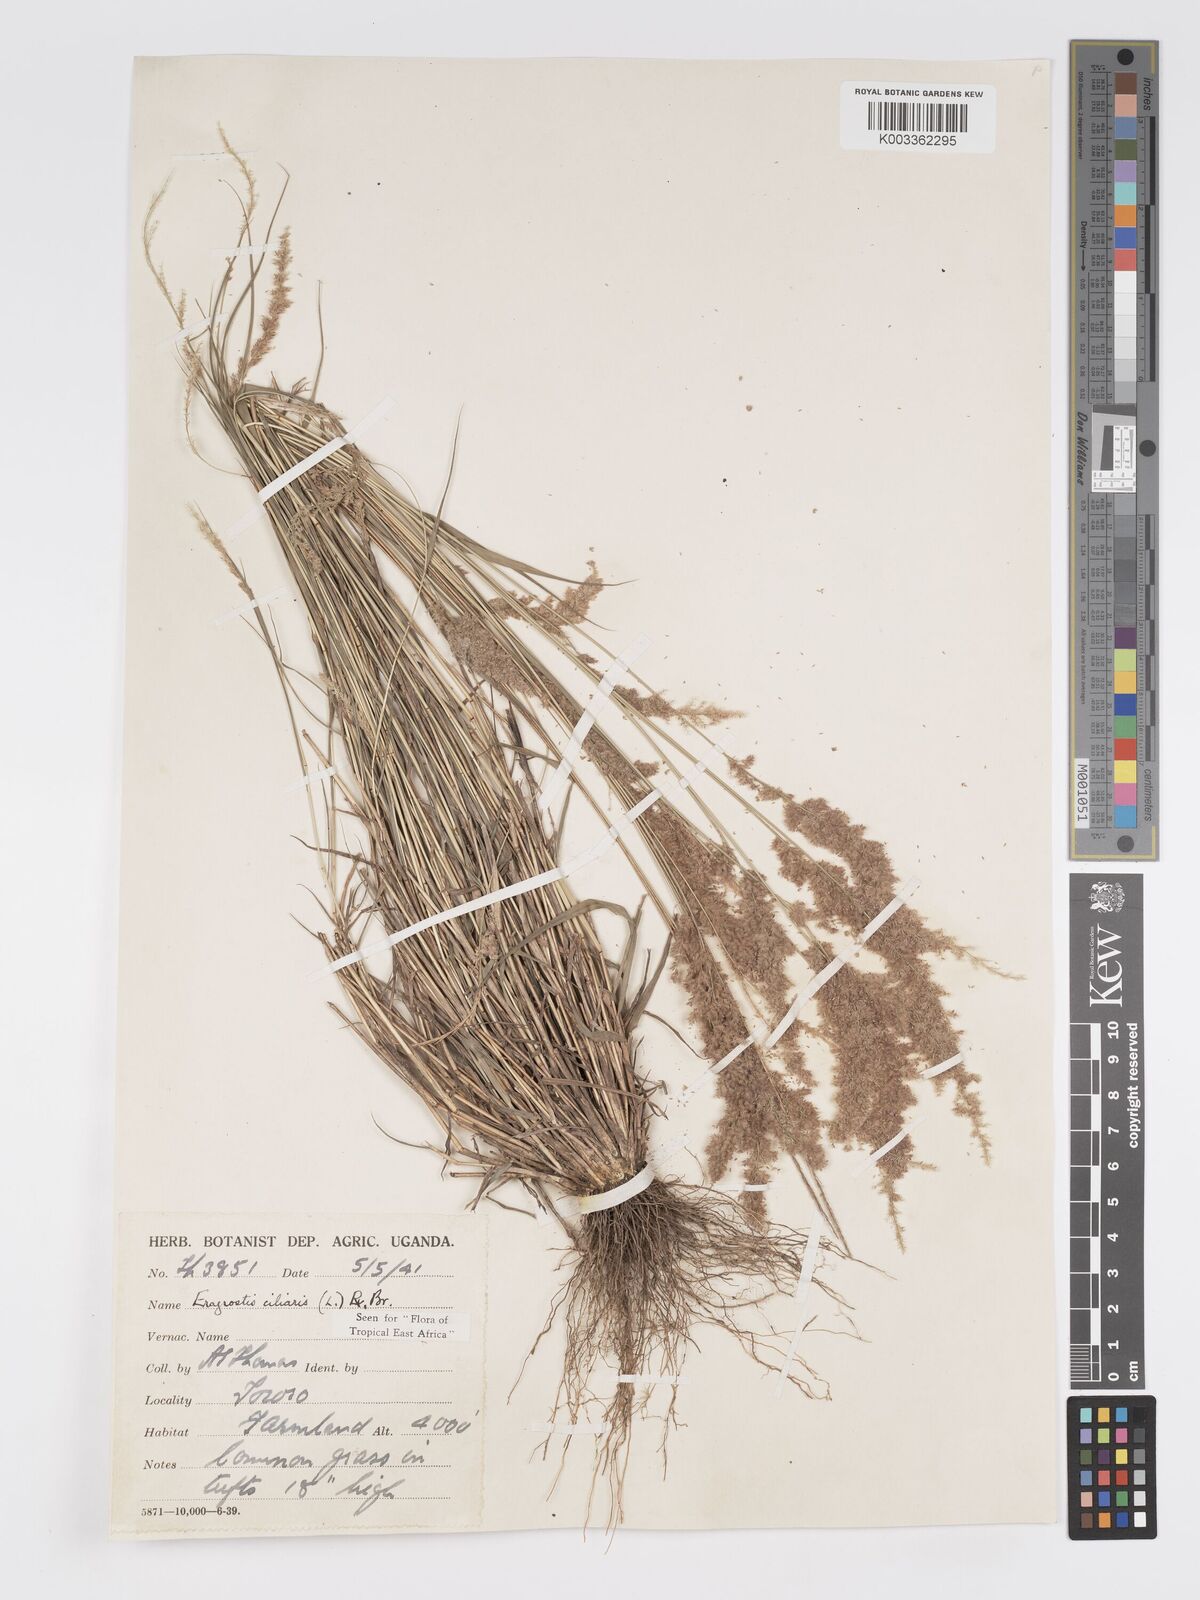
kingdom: Plantae
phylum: Tracheophyta
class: Liliopsida
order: Poales
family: Poaceae
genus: Eragrostis
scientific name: Eragrostis ciliaris
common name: Gophertail lovegrass
